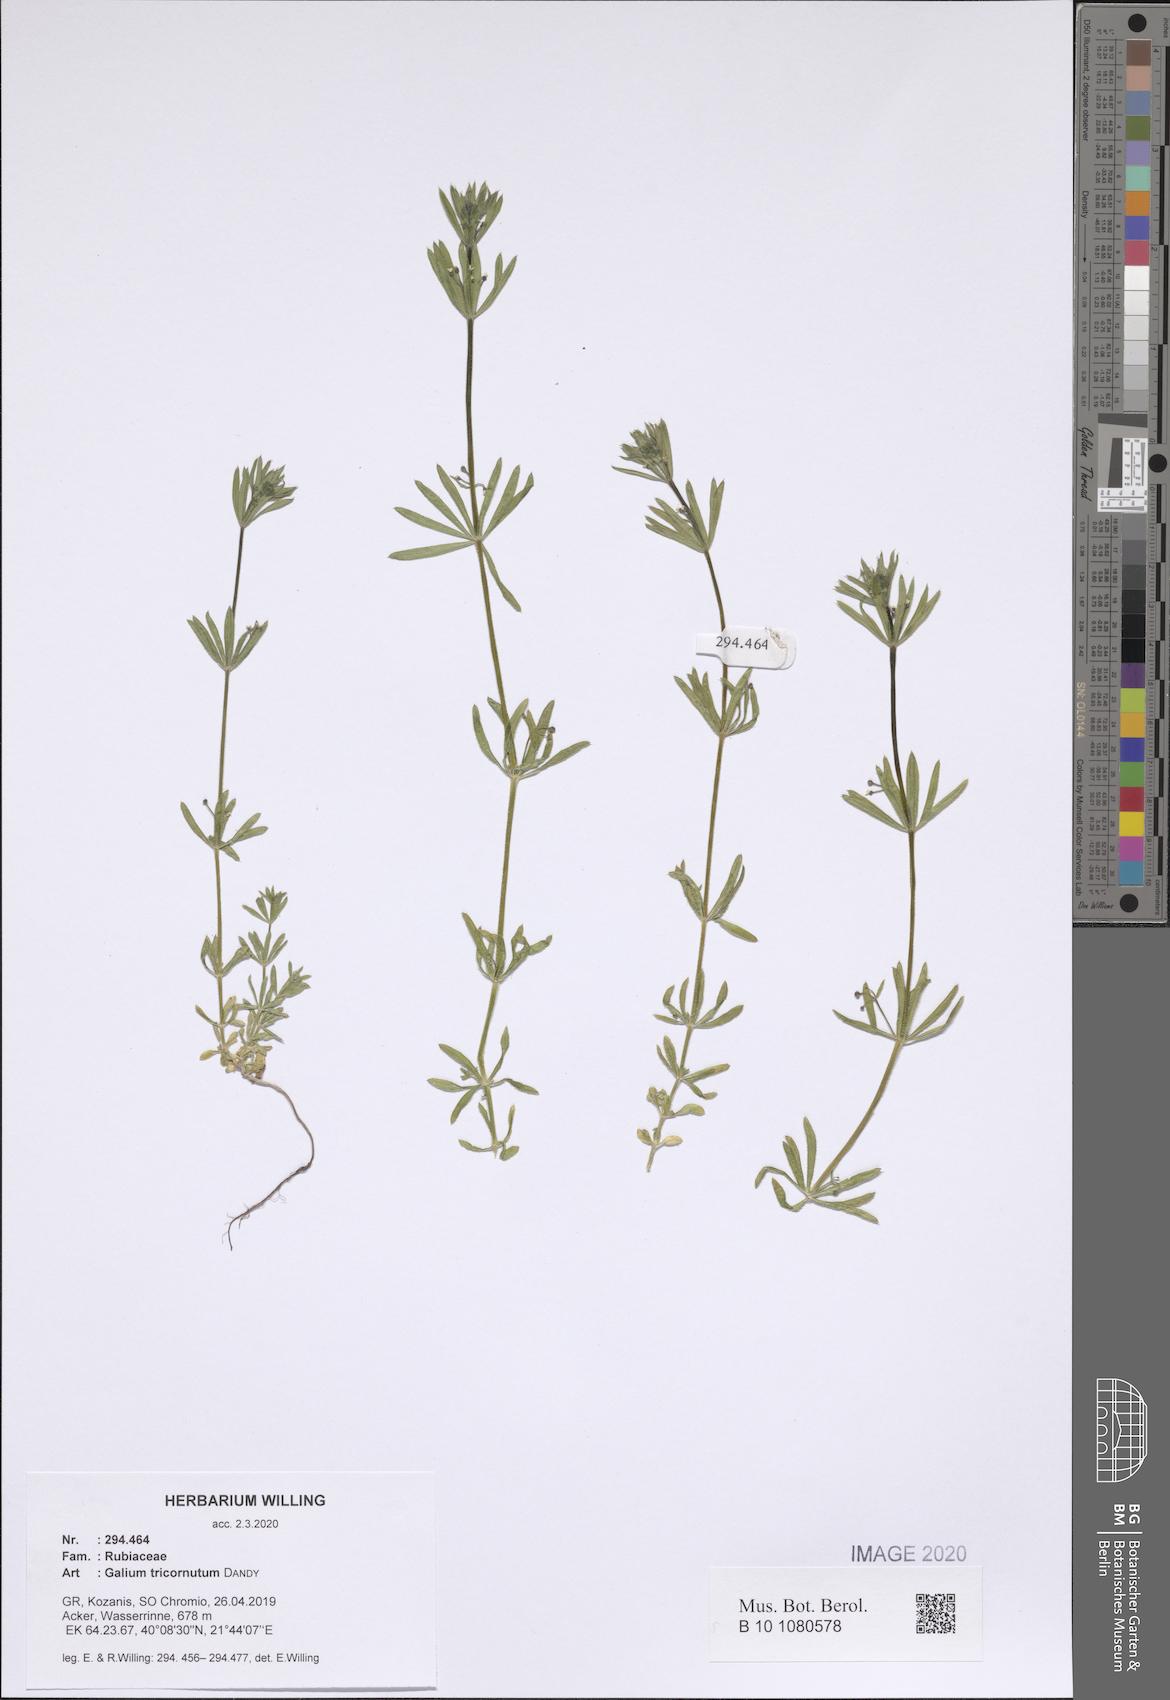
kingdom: Plantae
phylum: Tracheophyta
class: Magnoliopsida
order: Gentianales
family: Rubiaceae
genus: Galium
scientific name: Galium tricornutum
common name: Corn cleavers
